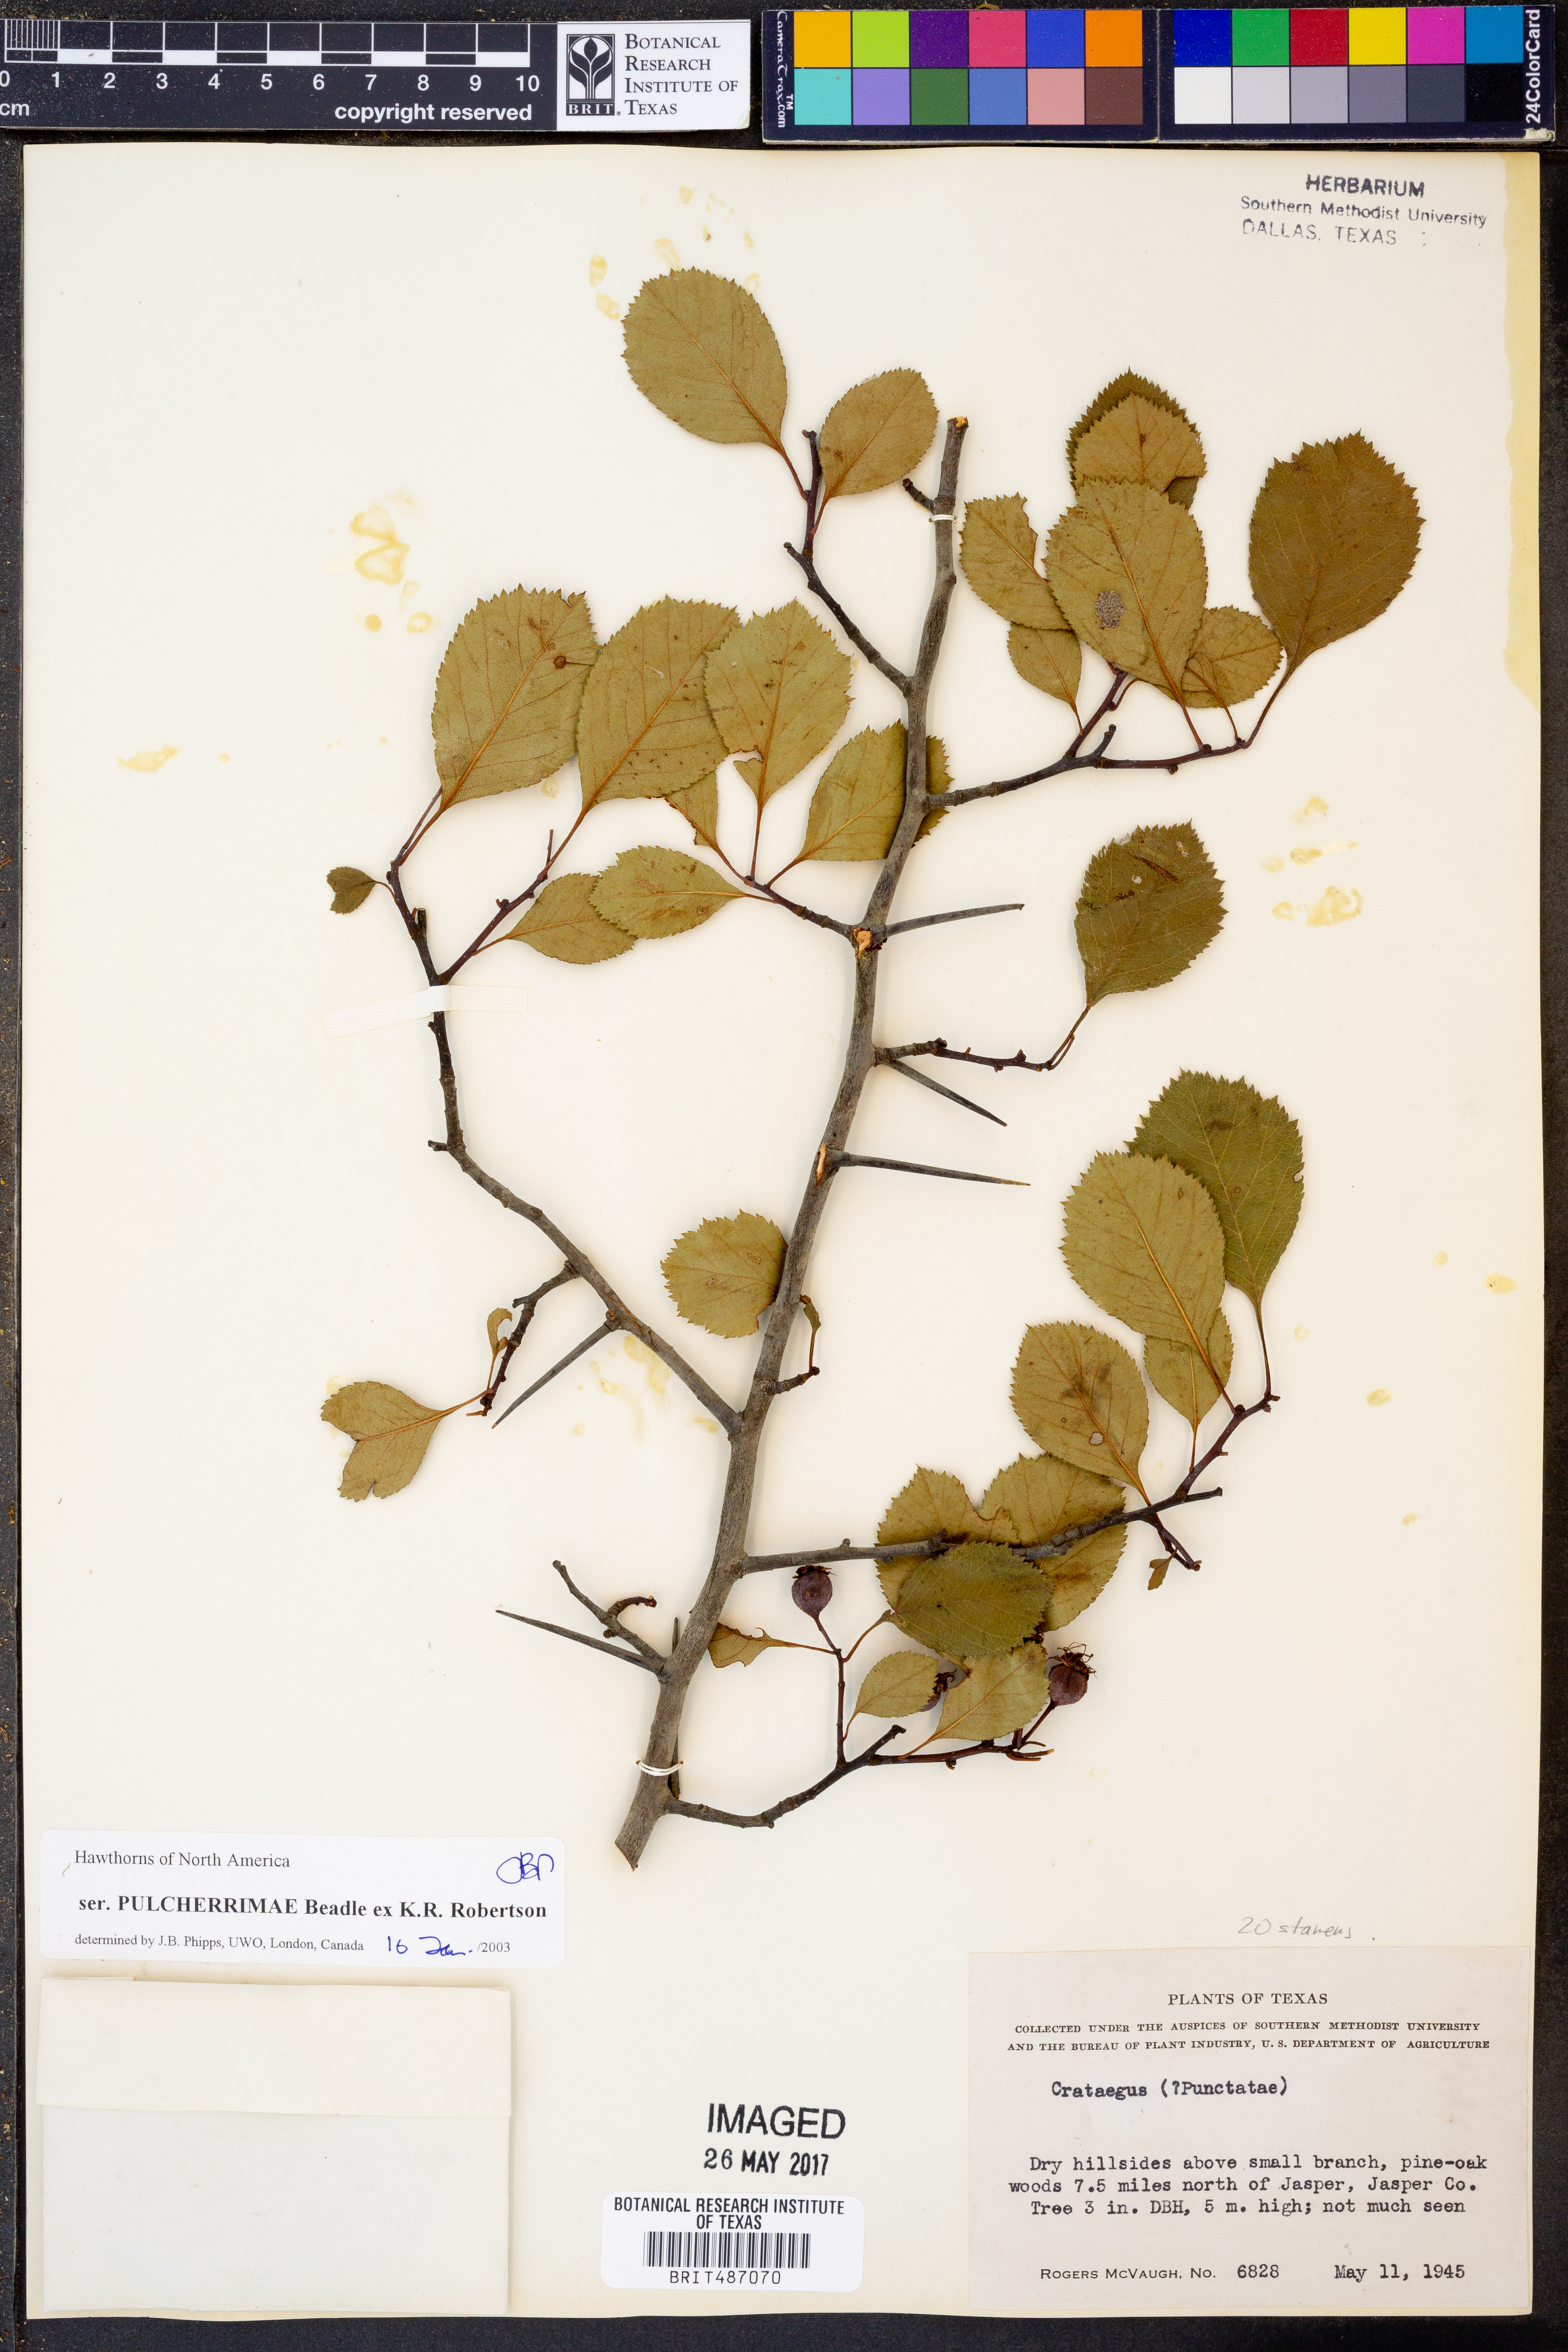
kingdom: Plantae
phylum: Tracheophyta
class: Magnoliopsida
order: Rosales
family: Rosaceae
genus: Crataegus
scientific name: Crataegus punctata
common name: Dotted hawthorn
